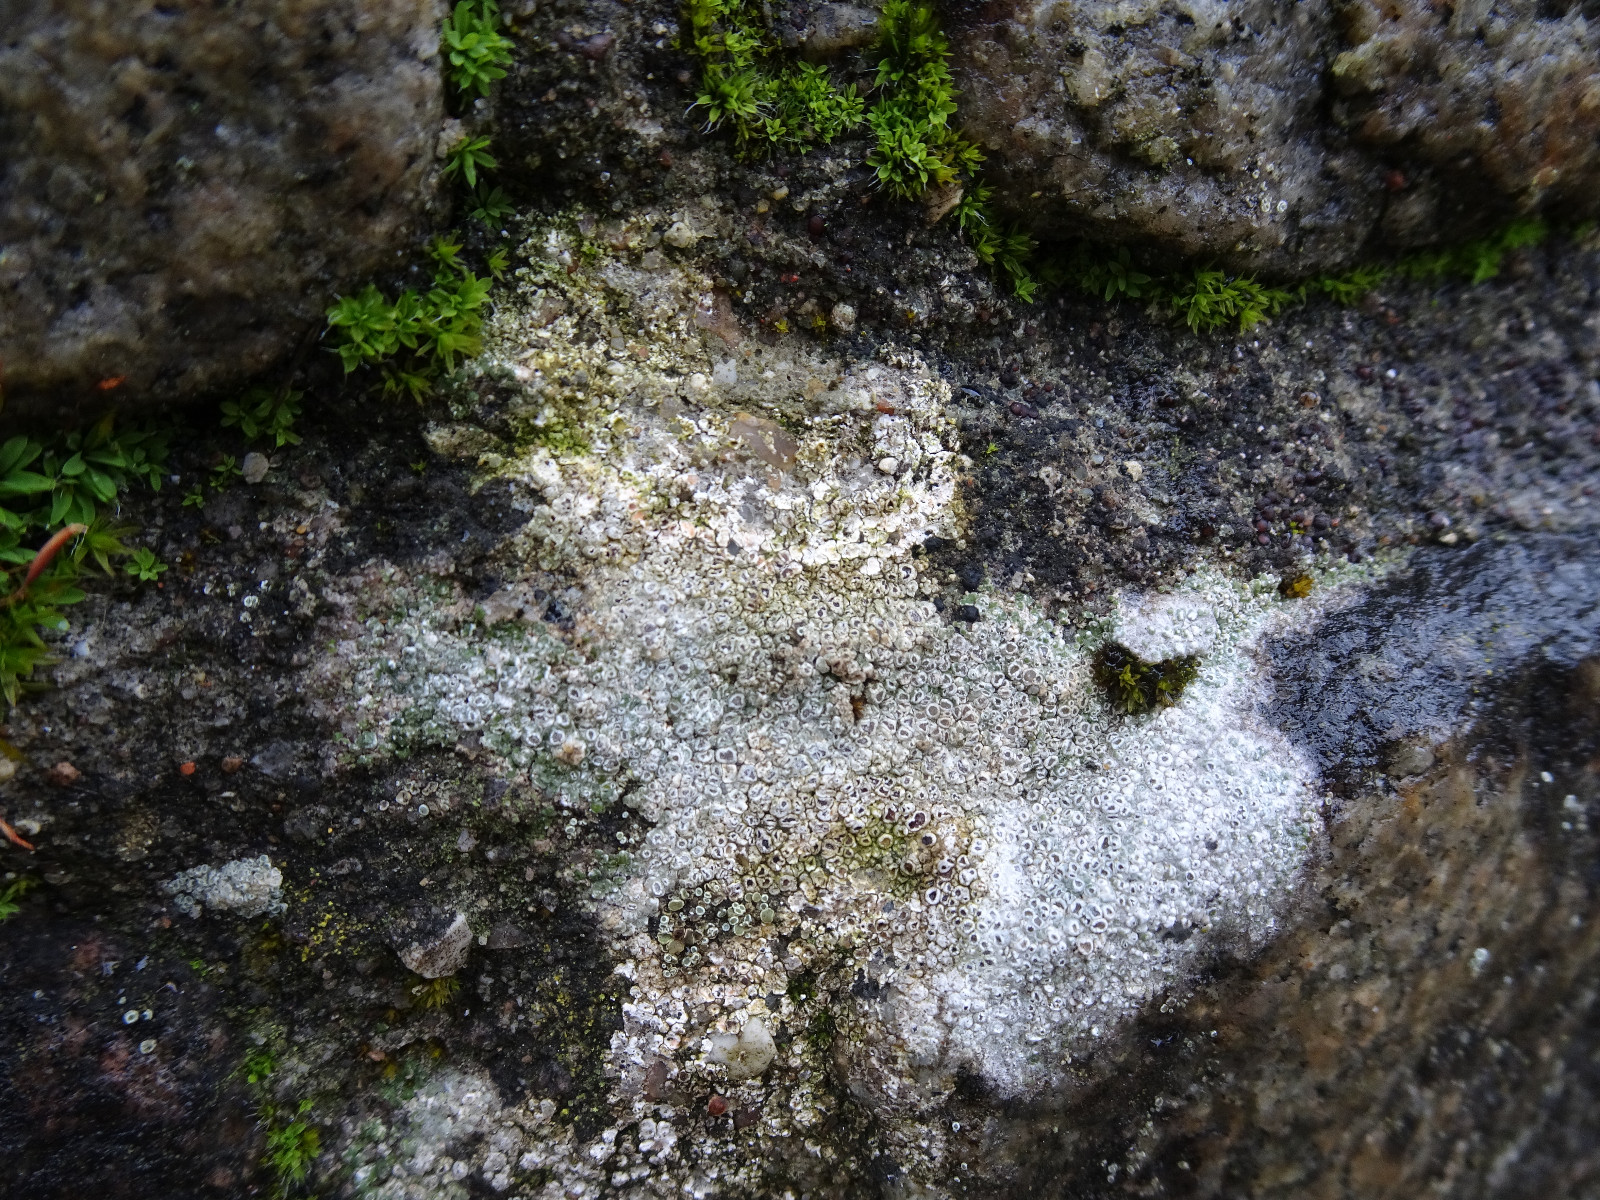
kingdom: Fungi
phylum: Ascomycota
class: Lecanoromycetes
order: Pertusariales
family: Megasporaceae
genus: Circinaria
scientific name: Circinaria contorta
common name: indviklet hulskivelav
